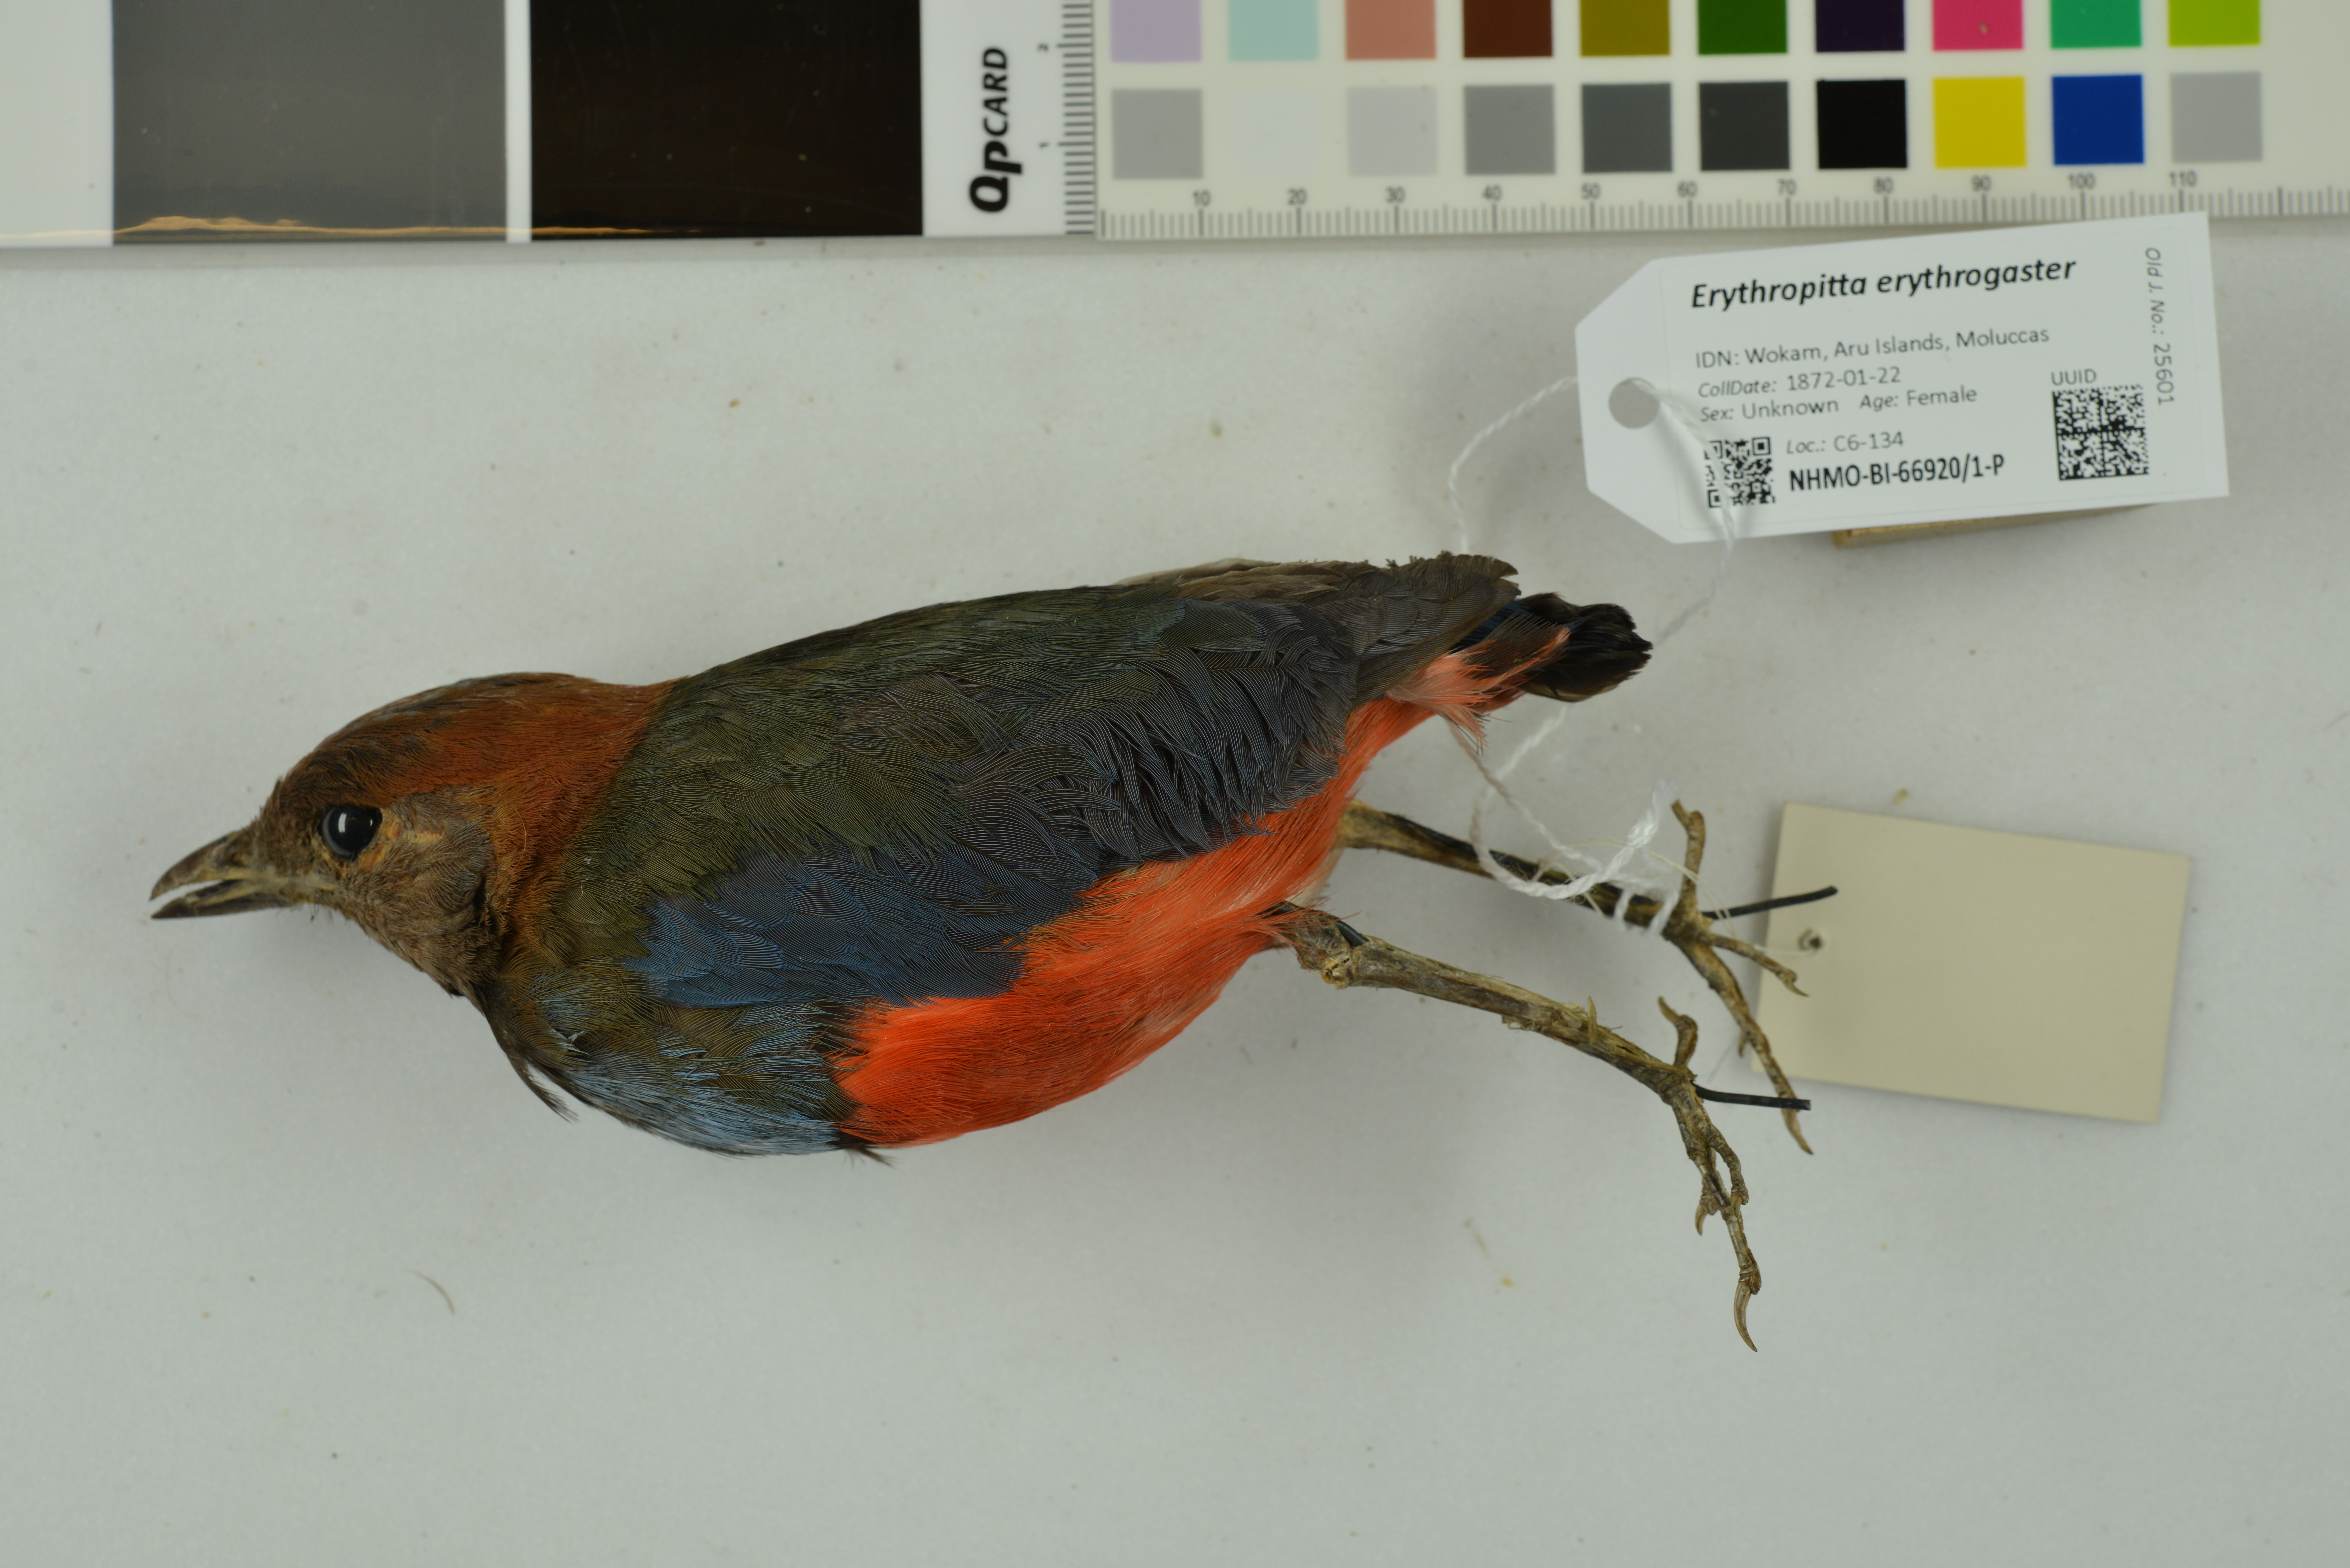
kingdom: Animalia
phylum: Chordata
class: Aves
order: Passeriformes
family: Pittidae
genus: Pitta
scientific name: Pitta erythrogaster
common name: Red-bellied pitta
